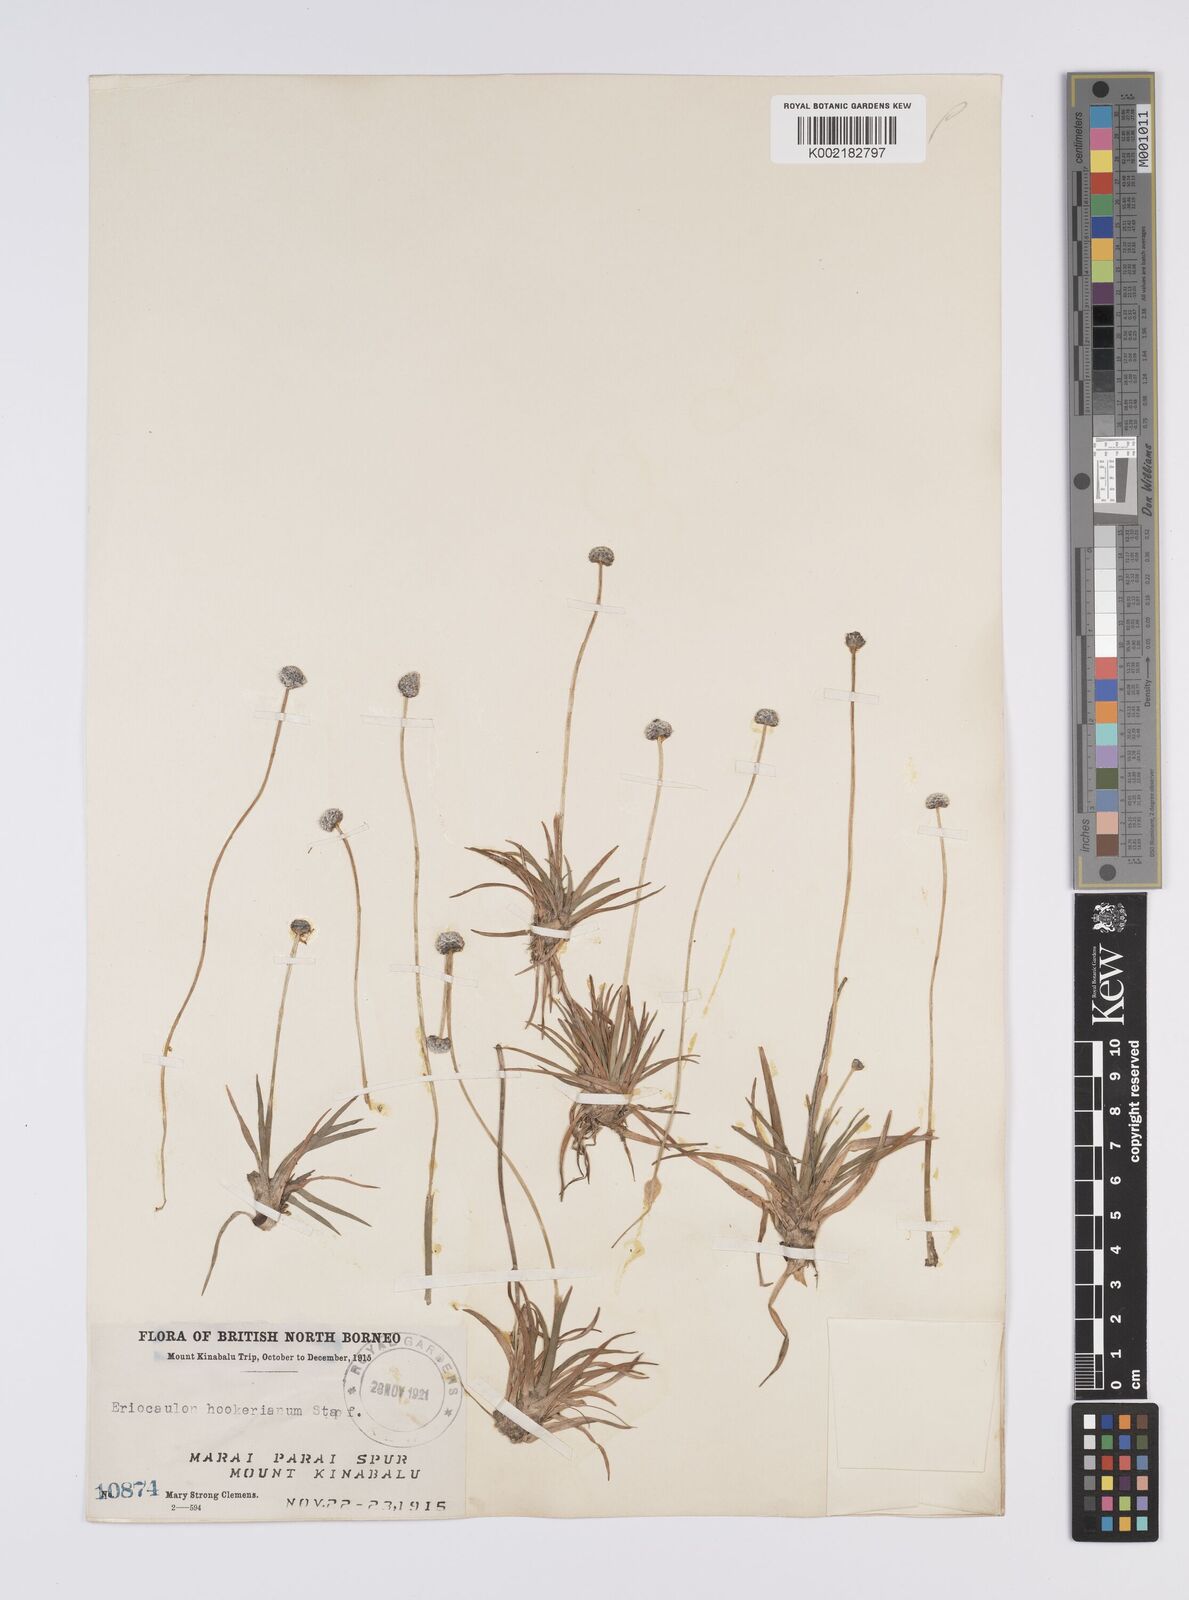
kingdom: Plantae
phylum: Tracheophyta
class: Liliopsida
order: Poales
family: Eriocaulaceae
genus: Eriocaulon
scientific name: Eriocaulon hookerianum
